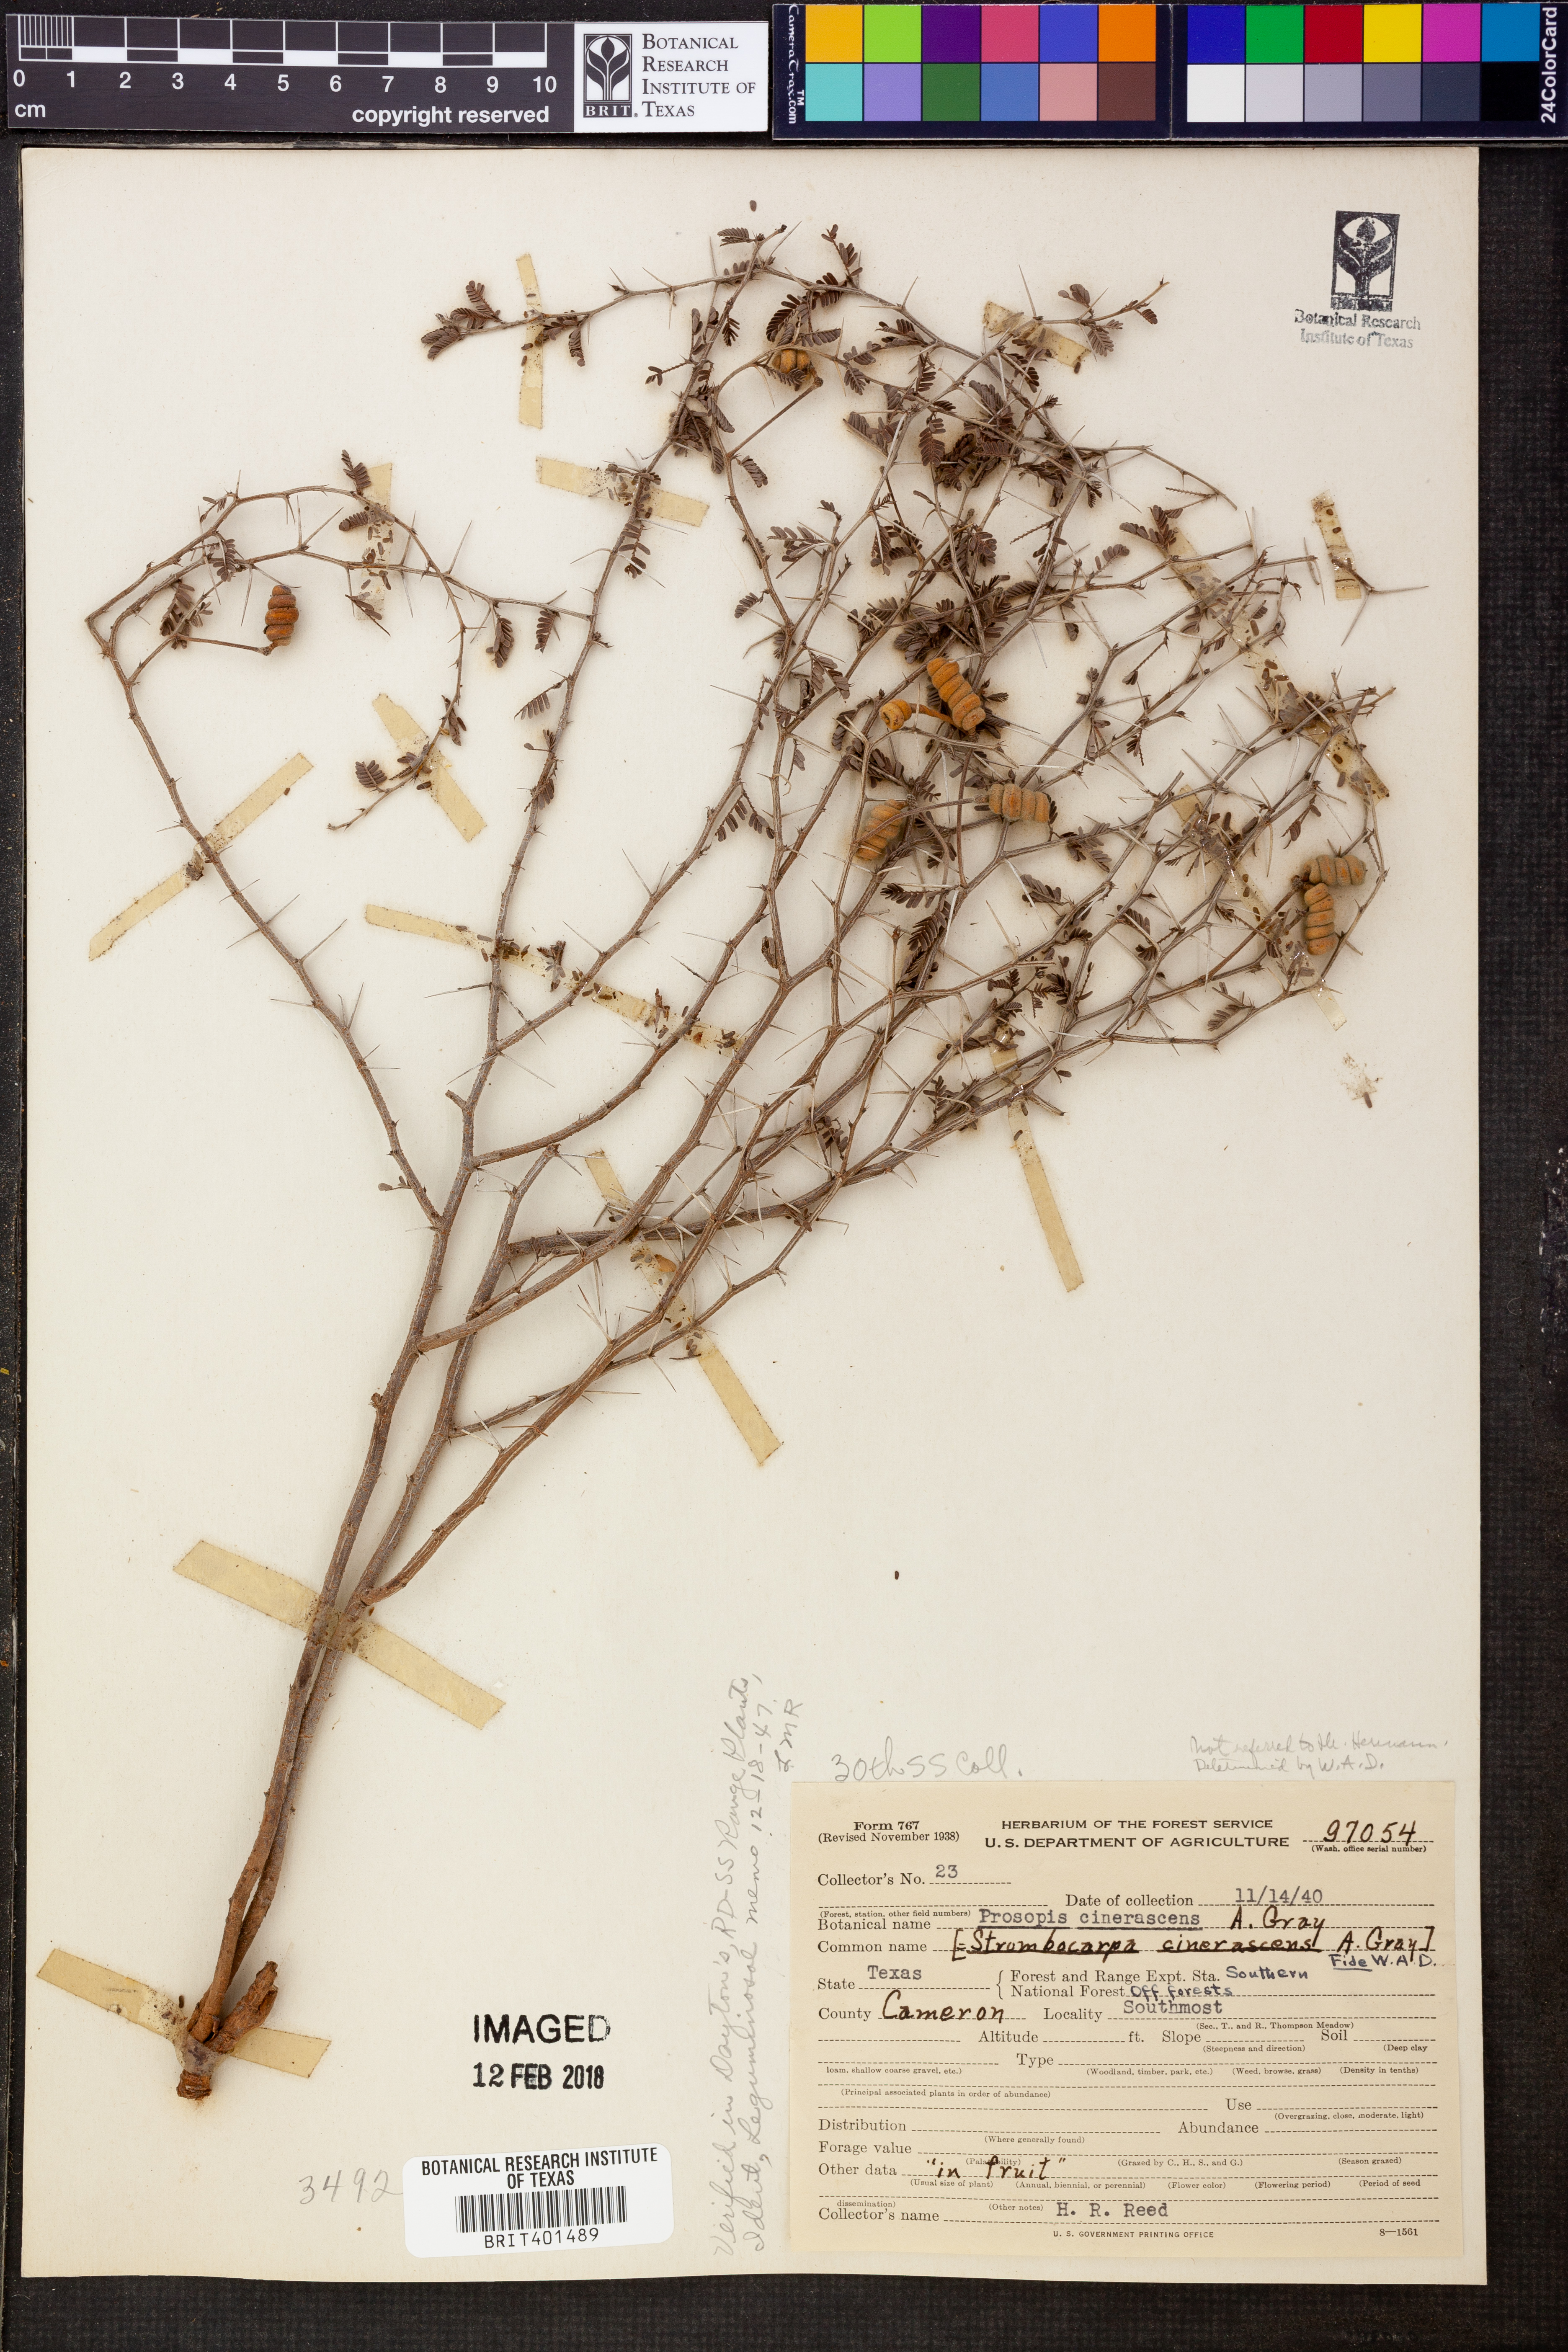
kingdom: Plantae
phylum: Tracheophyta
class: Magnoliopsida
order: Fabales
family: Fabaceae
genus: Prosopis
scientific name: Prosopis cinerascens
